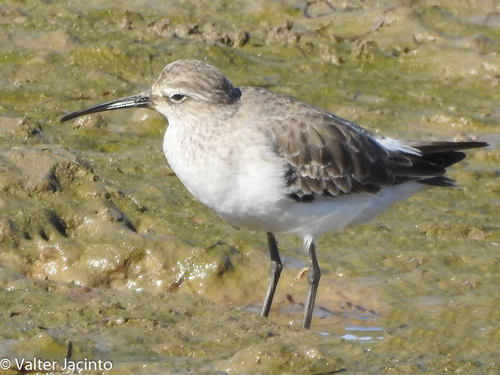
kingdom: Animalia
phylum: Chordata
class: Aves
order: Charadriiformes
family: Scolopacidae
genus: Calidris
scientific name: Calidris ferruginea
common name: Curlew sandpiper
